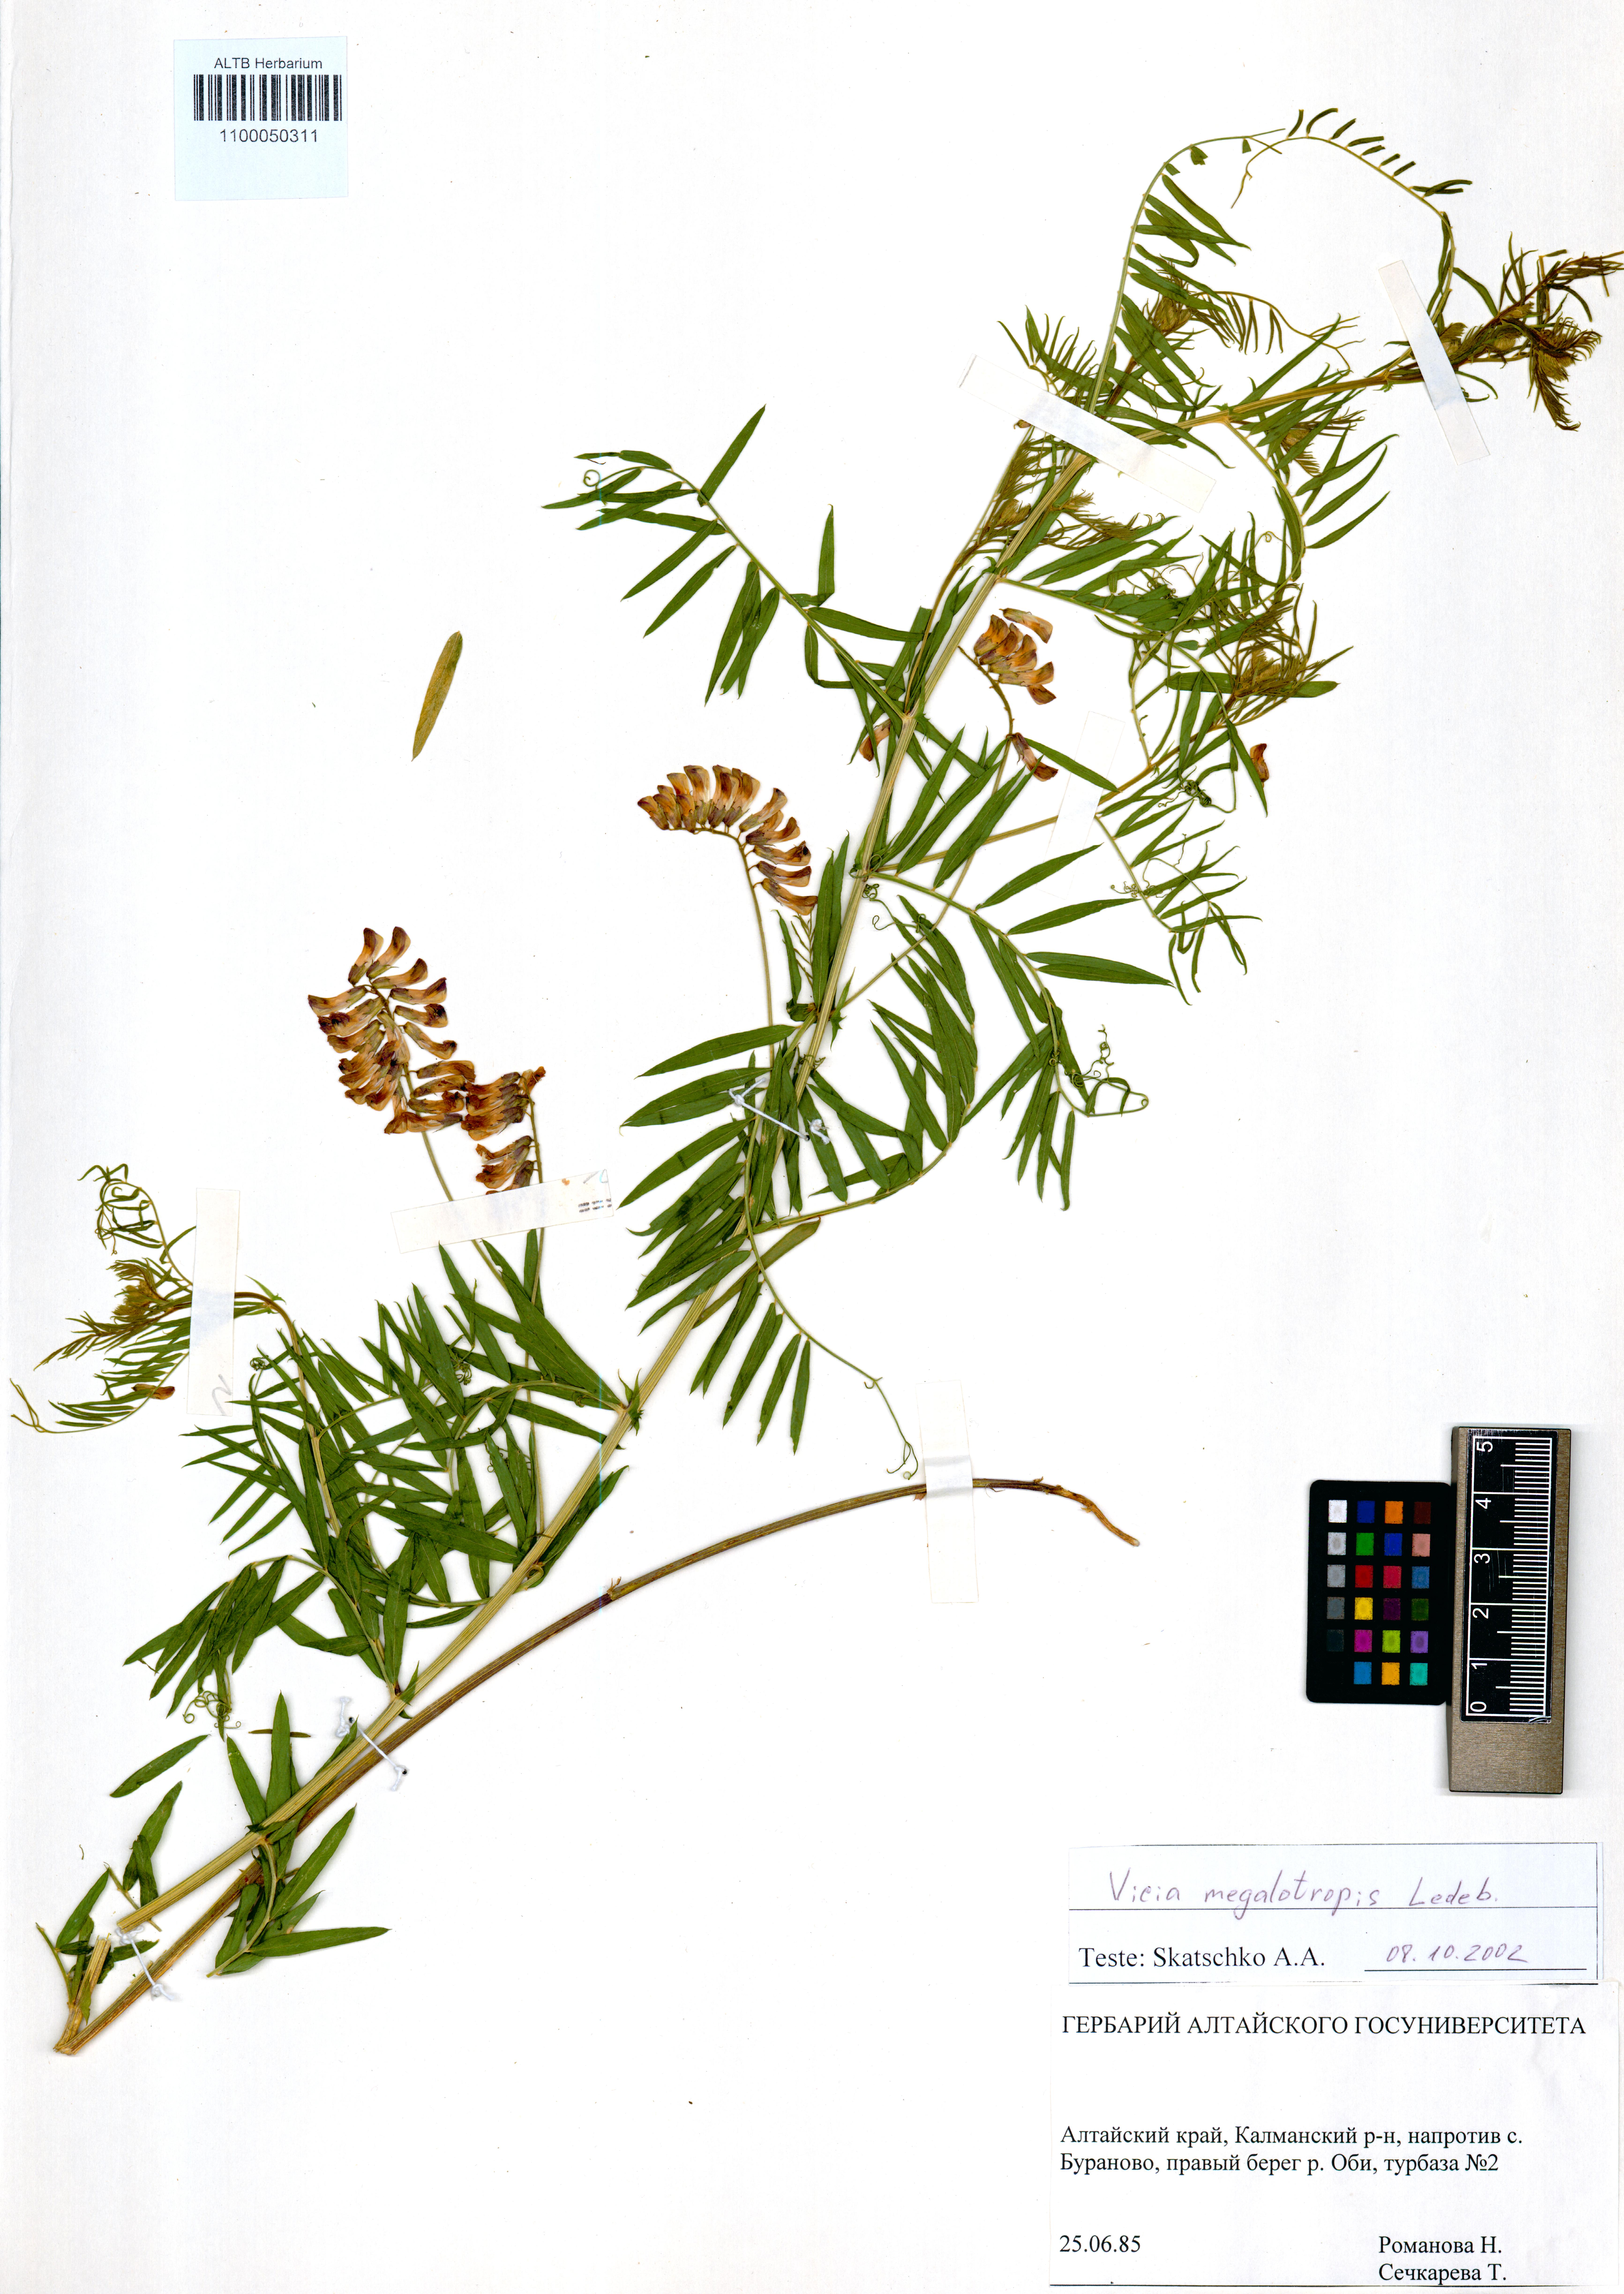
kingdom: Plantae
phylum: Tracheophyta
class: Magnoliopsida
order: Fabales
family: Fabaceae
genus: Vicia
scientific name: Vicia megalotropis
